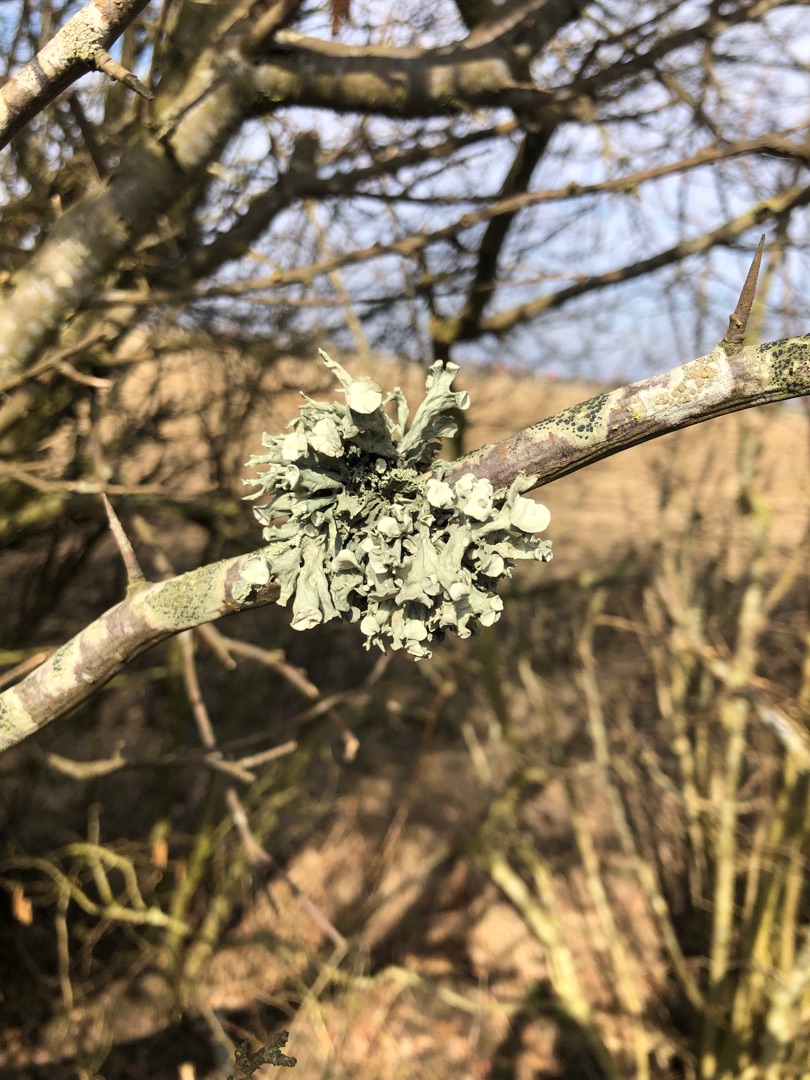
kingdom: Fungi
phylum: Ascomycota
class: Lecanoromycetes
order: Lecanorales
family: Ramalinaceae
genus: Ramalina
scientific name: Ramalina fastigiata
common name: Tue-grenlav
